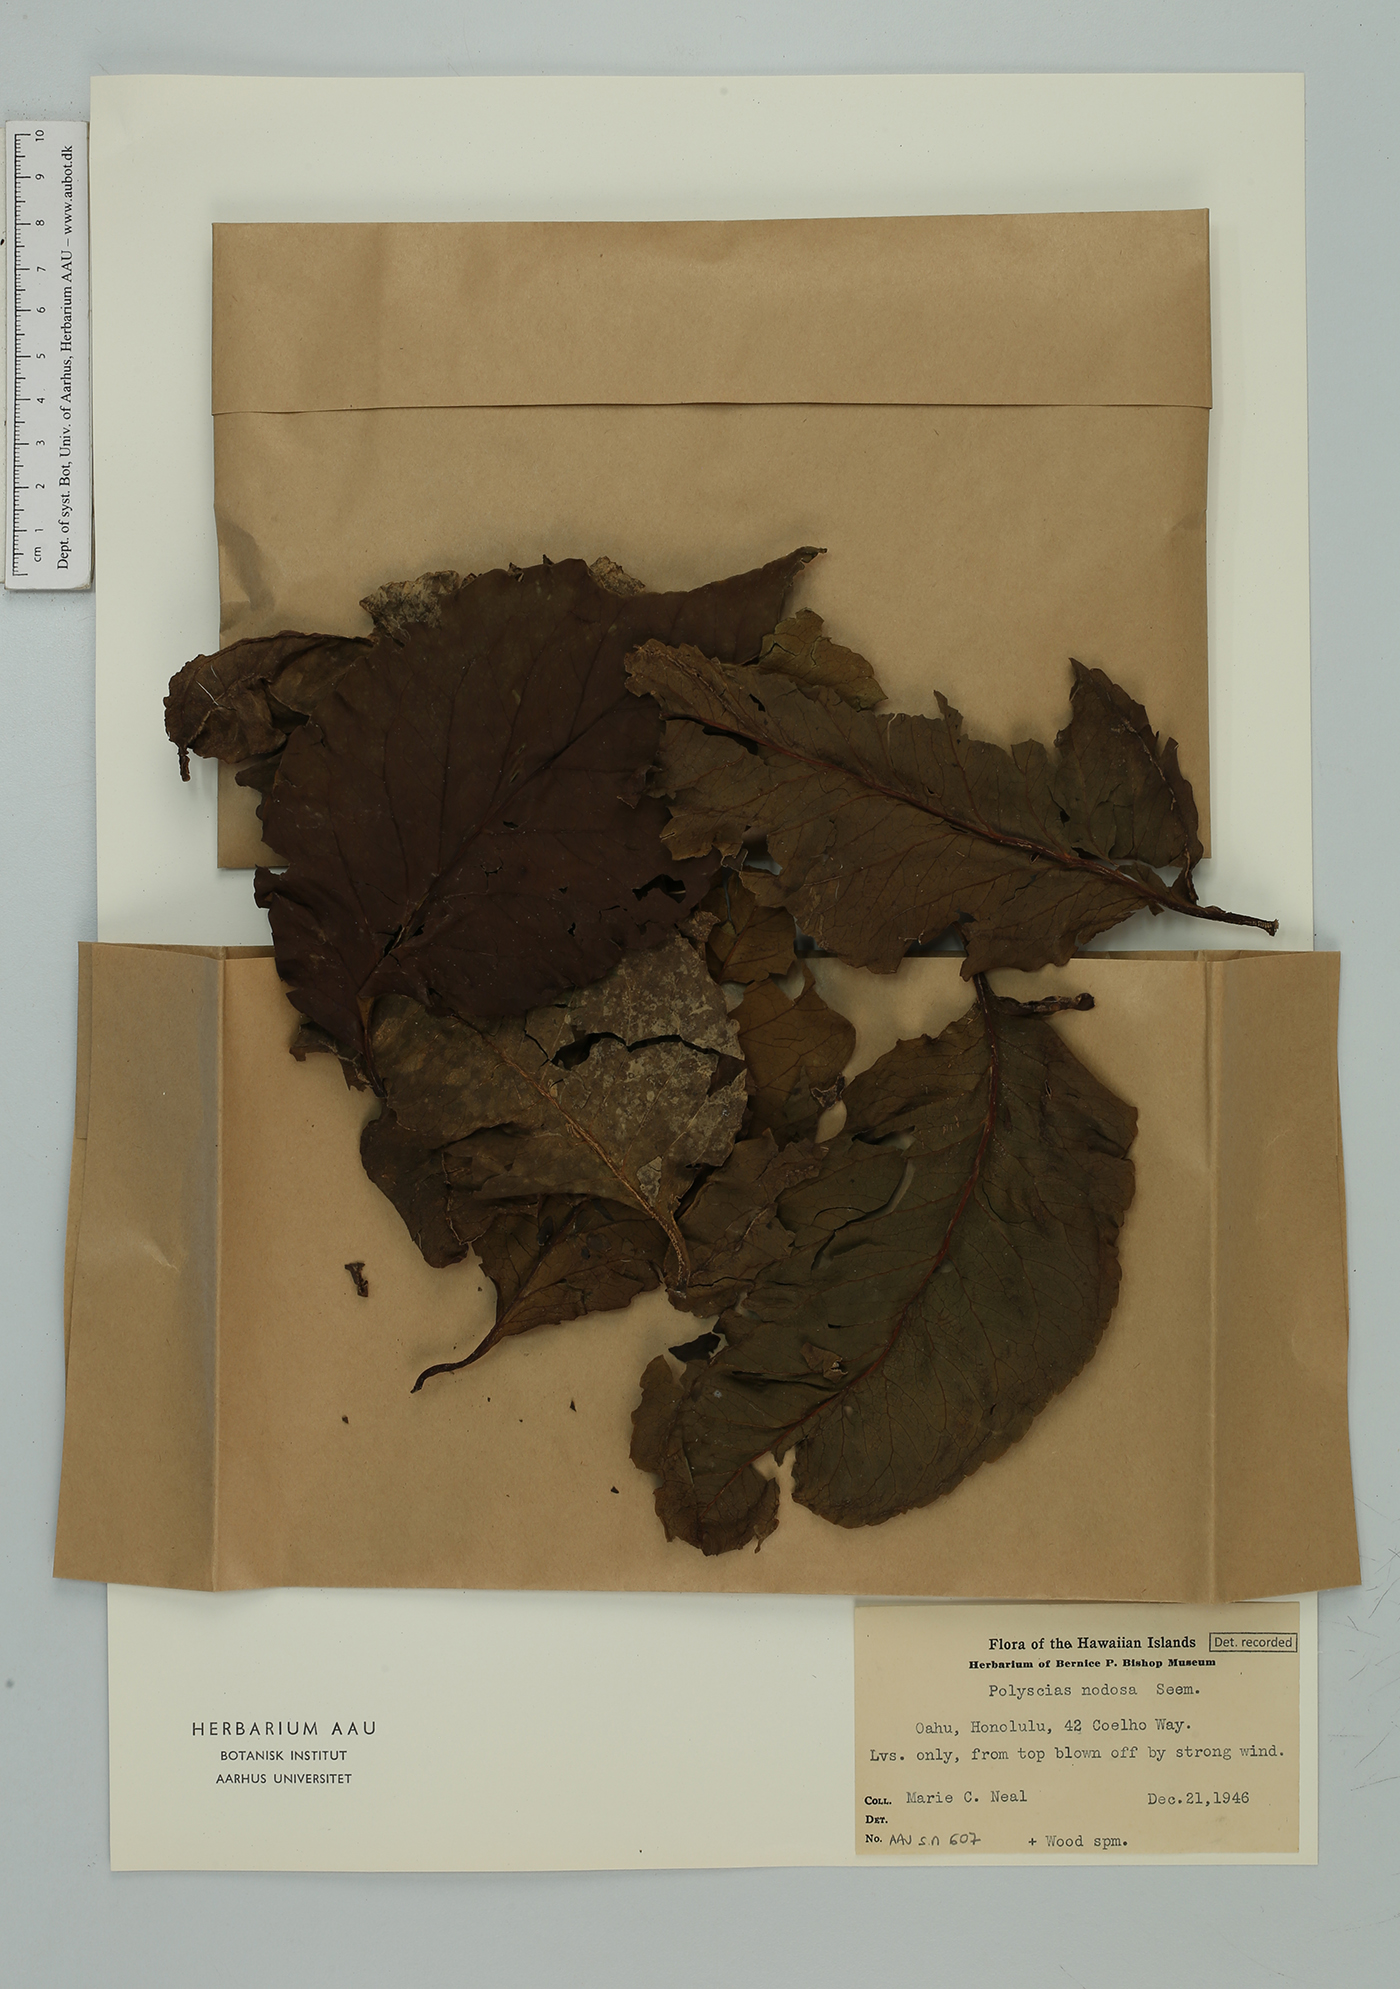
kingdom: Plantae
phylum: Tracheophyta
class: Magnoliopsida
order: Apiales
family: Araliaceae
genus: Polyscias
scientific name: Polyscias nodosa
